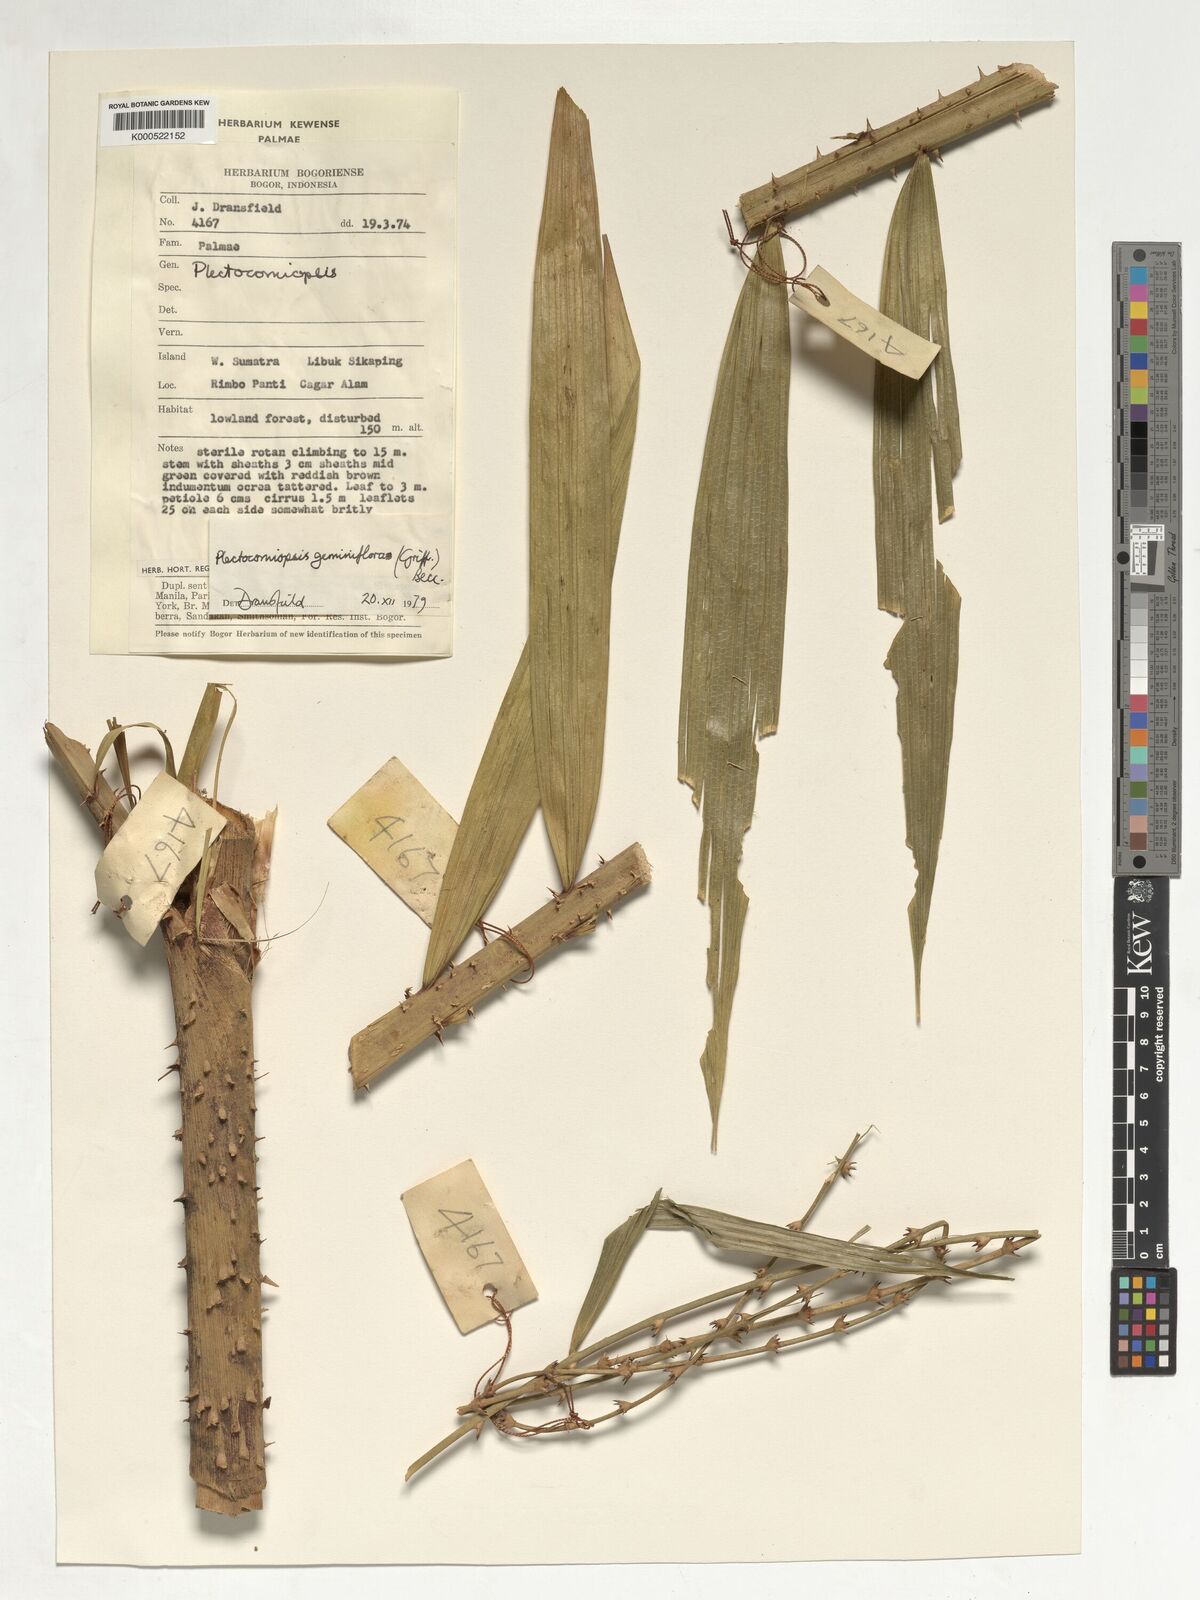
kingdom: Plantae
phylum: Tracheophyta
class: Liliopsida
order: Arecales
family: Arecaceae
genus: Plectocomiopsis
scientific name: Plectocomiopsis geminiflora
